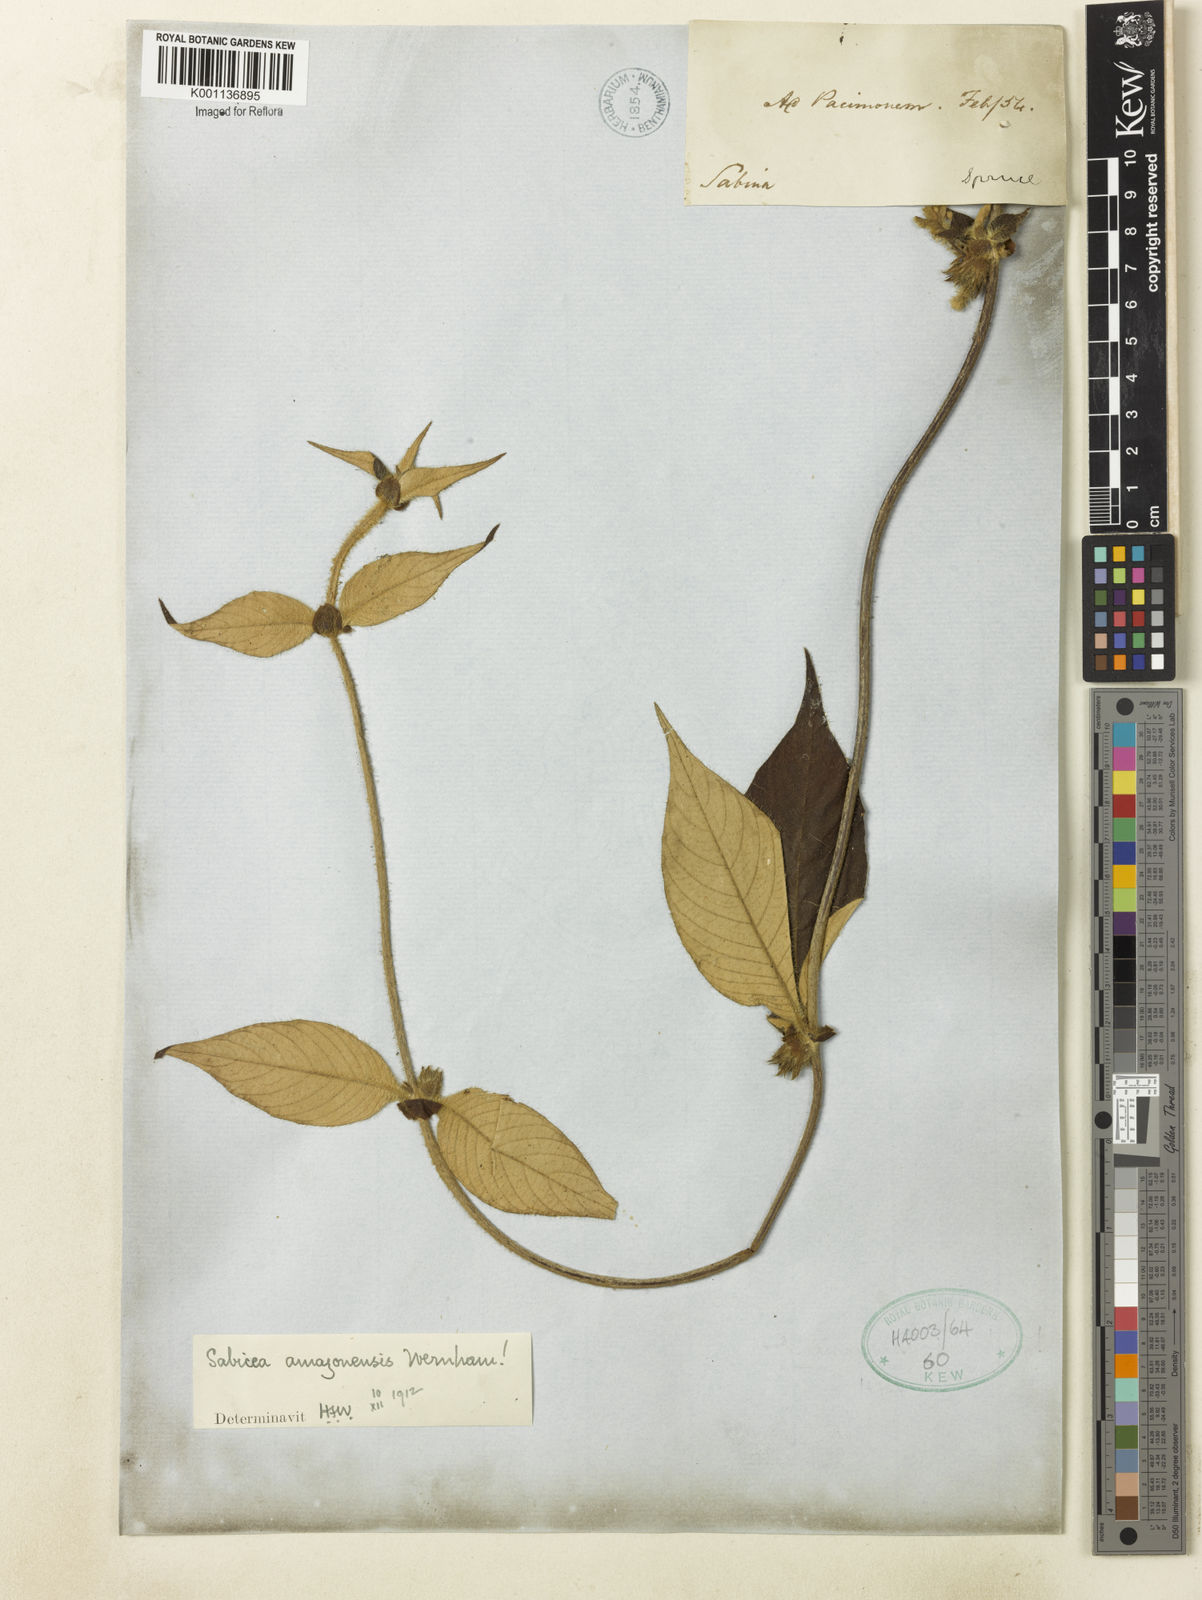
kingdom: Plantae
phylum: Tracheophyta
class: Magnoliopsida
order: Gentianales
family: Rubiaceae
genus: Sabicea
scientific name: Sabicea amazonensis
